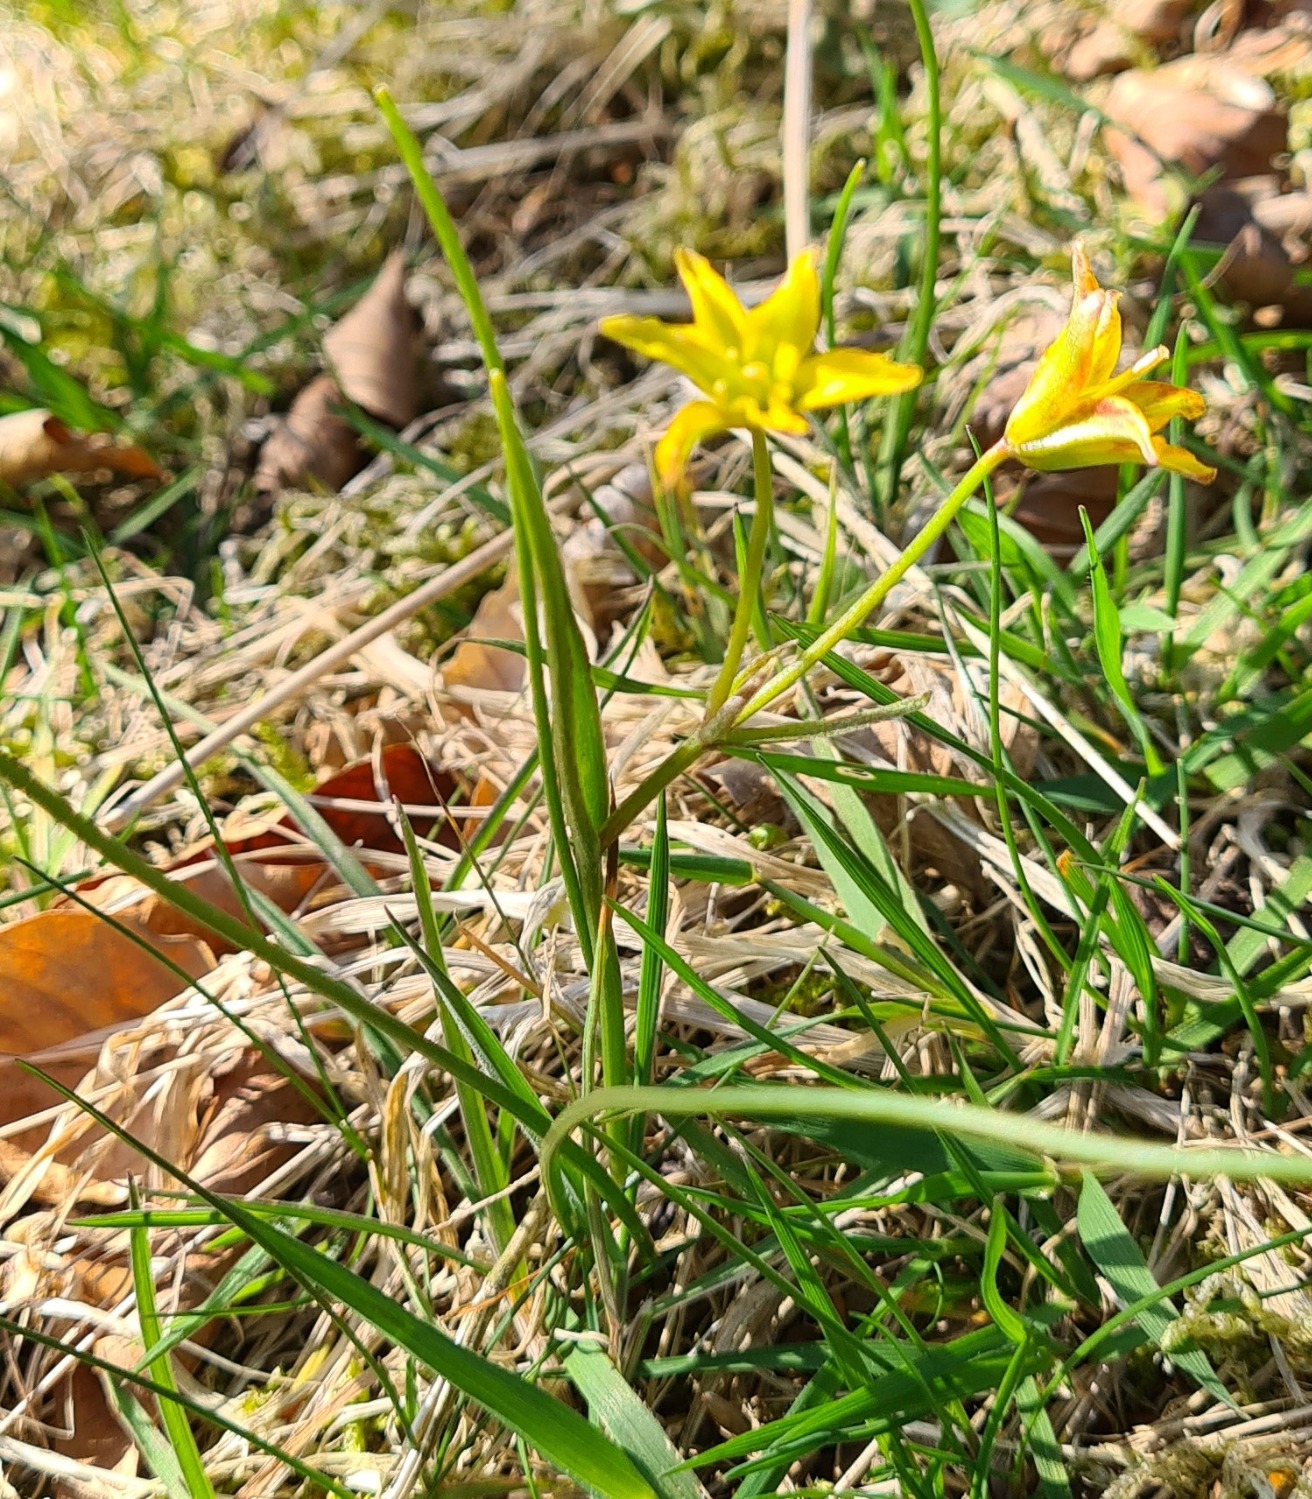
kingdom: Plantae
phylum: Tracheophyta
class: Liliopsida
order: Liliales
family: Liliaceae
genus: Gagea
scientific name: Gagea spathacea
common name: Hylster-guldstjerne
